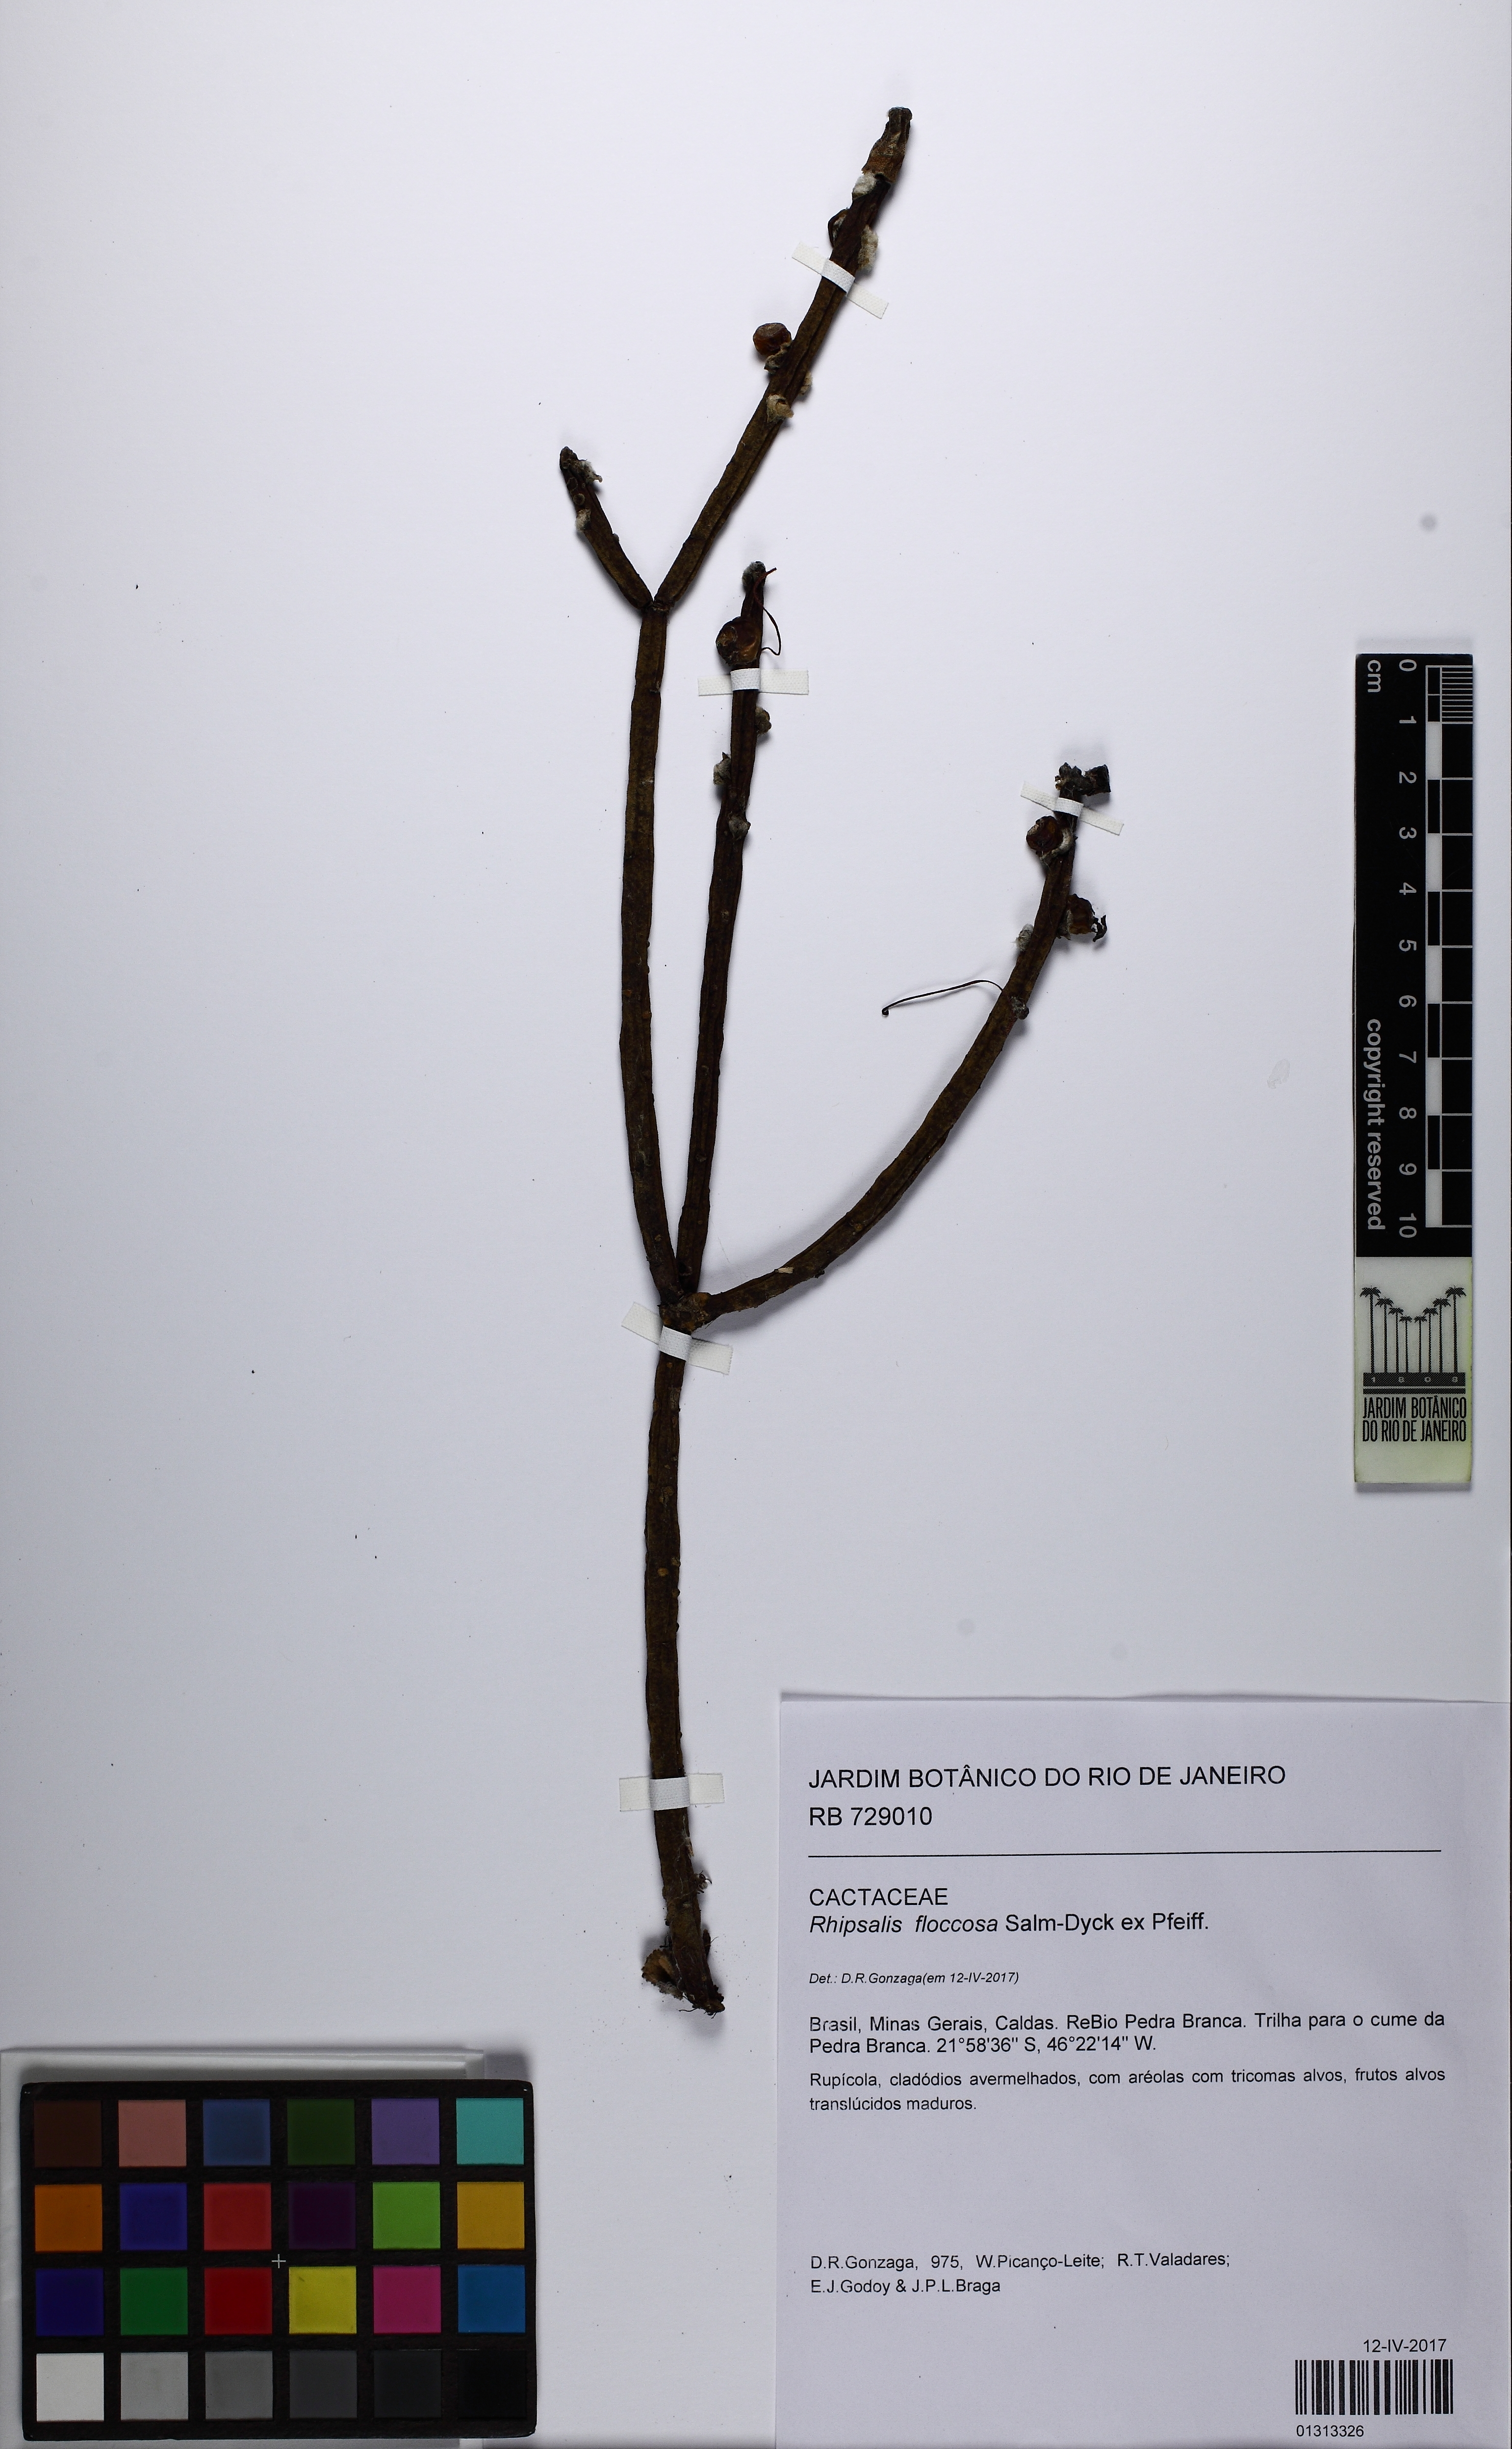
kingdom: Plantae
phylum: Tracheophyta
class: Magnoliopsida
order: Caryophyllales
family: Cactaceae
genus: Rhipsalis
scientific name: Rhipsalis floccosa
